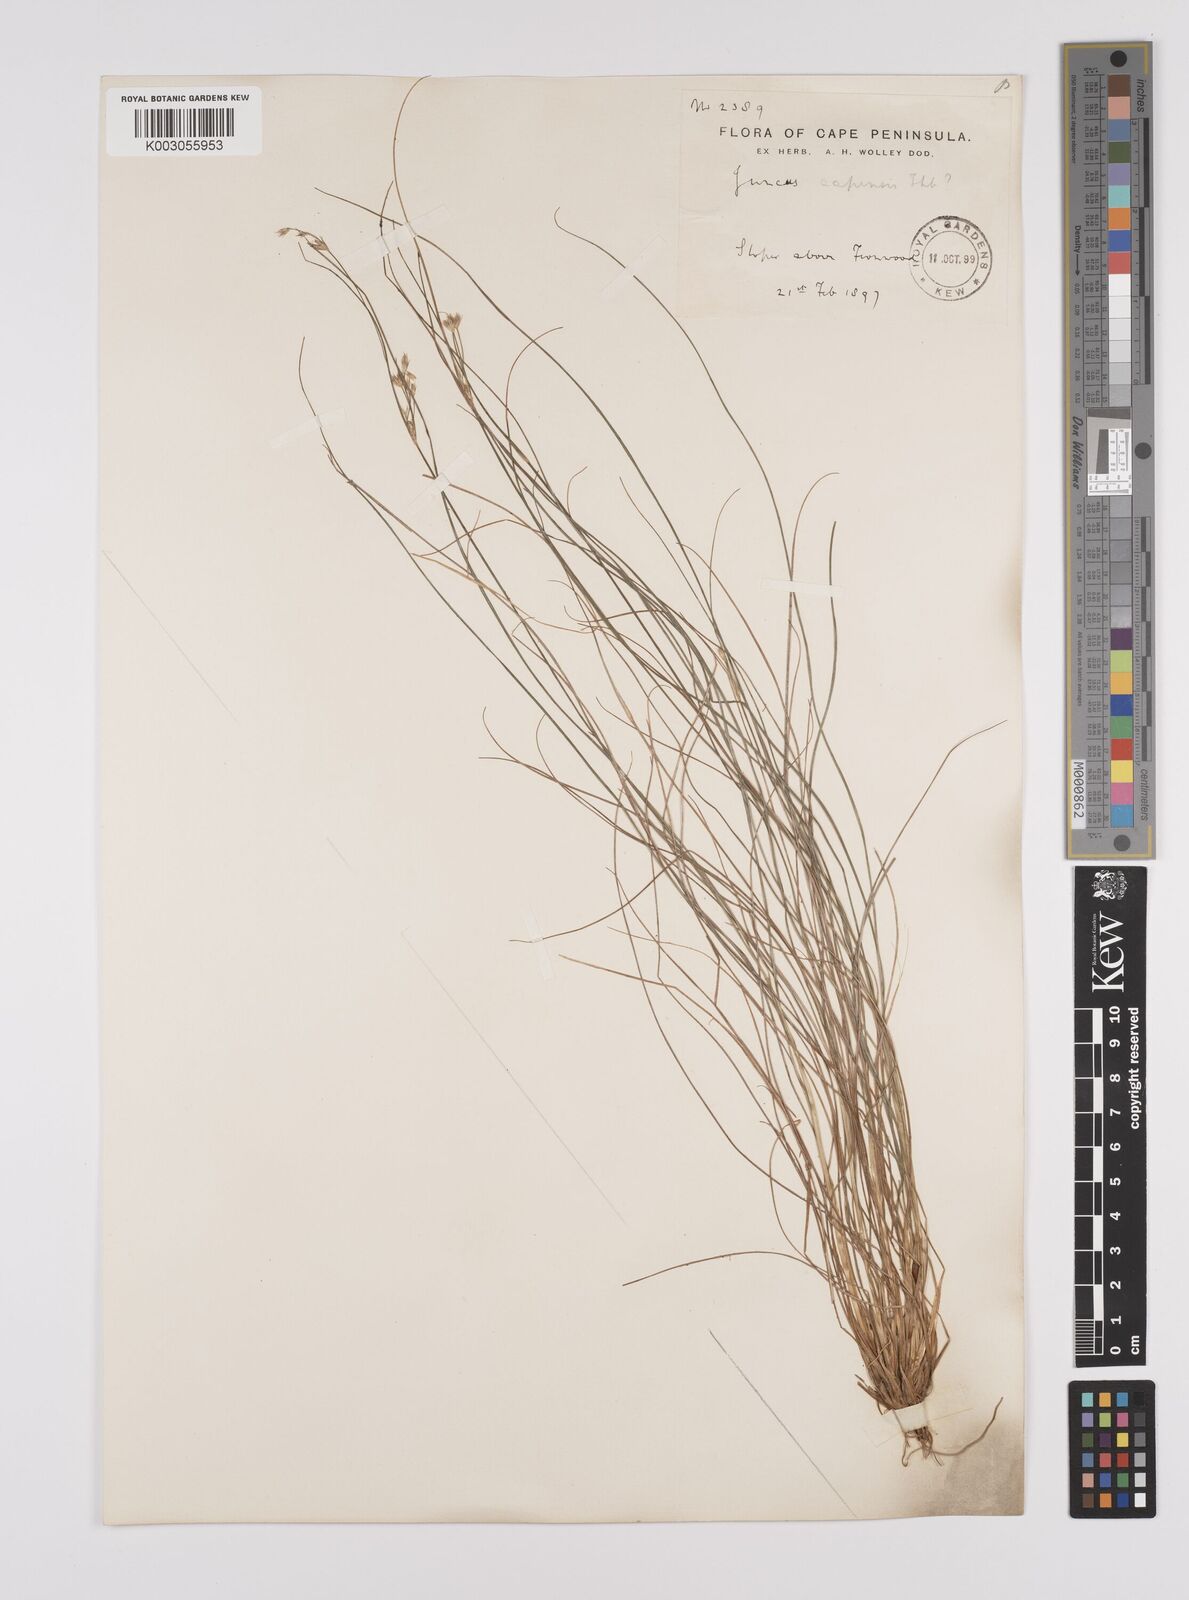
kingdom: Plantae
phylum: Tracheophyta
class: Liliopsida
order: Poales
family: Juncaceae
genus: Juncus
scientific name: Juncus capensis
